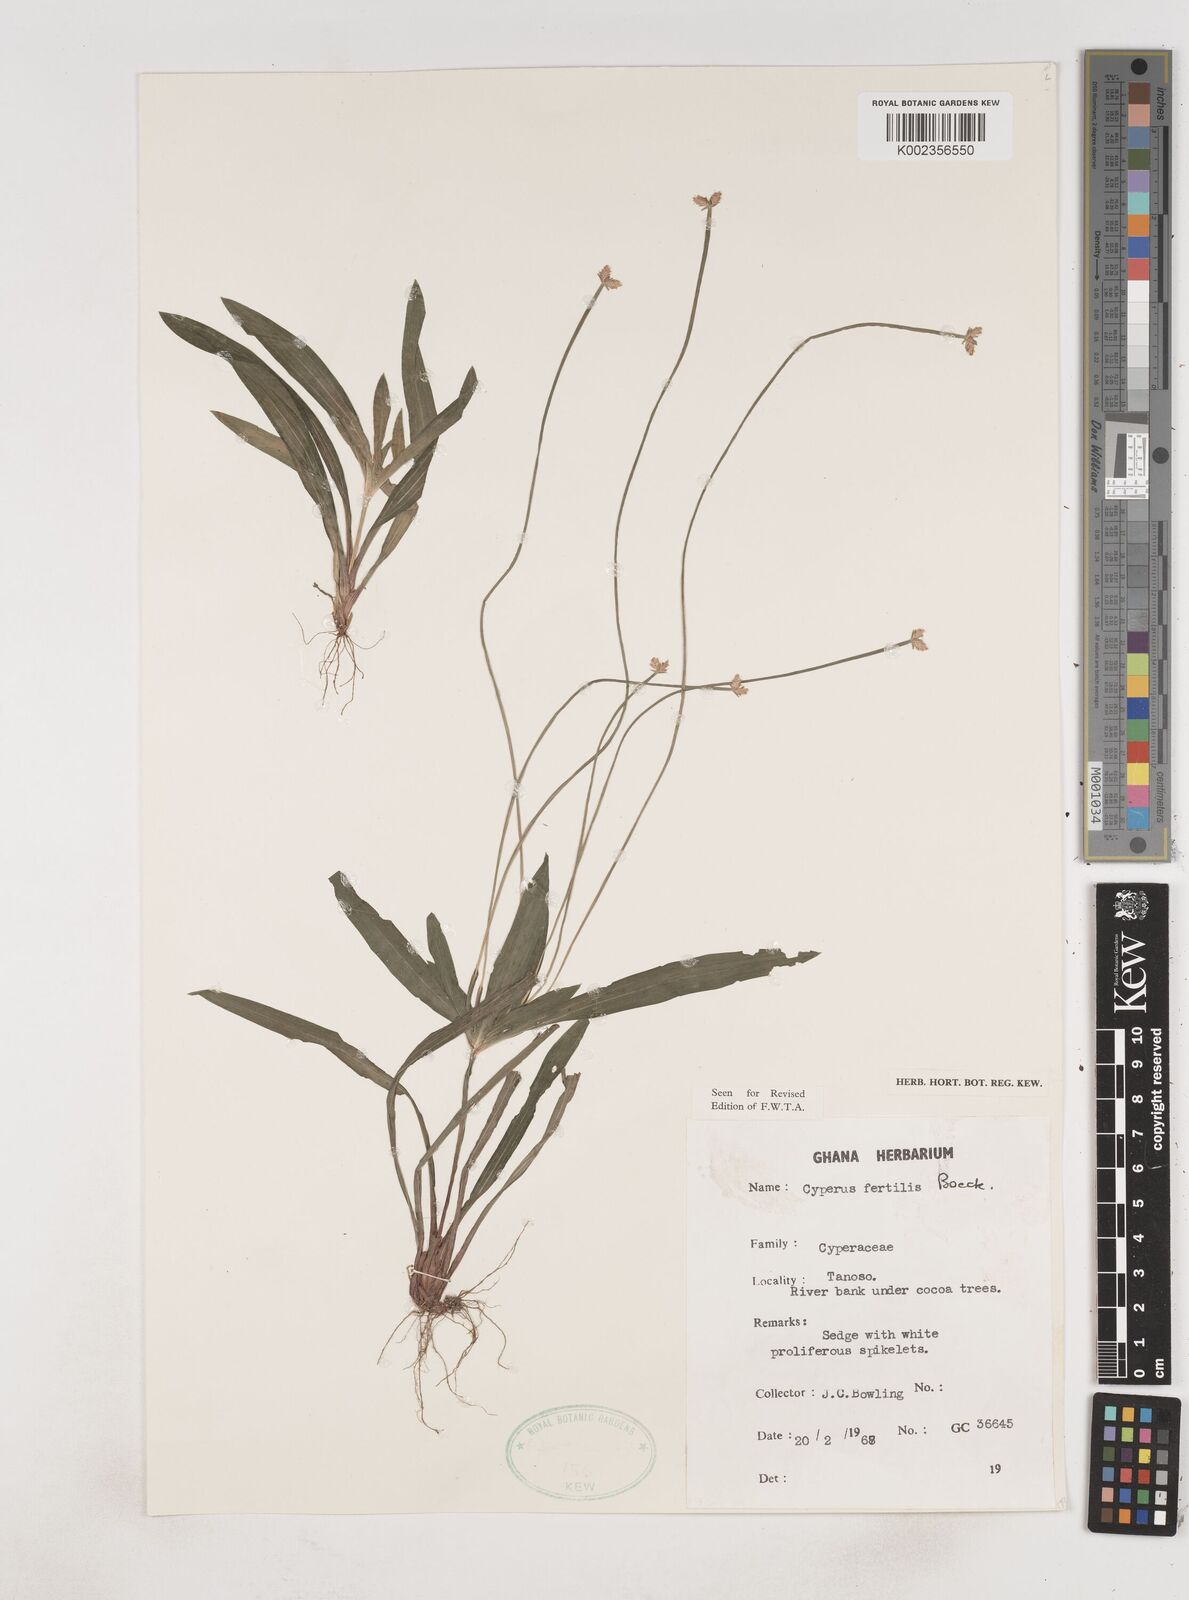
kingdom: Plantae
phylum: Tracheophyta
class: Liliopsida
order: Poales
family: Cyperaceae
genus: Cyperus
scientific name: Cyperus fertilis
